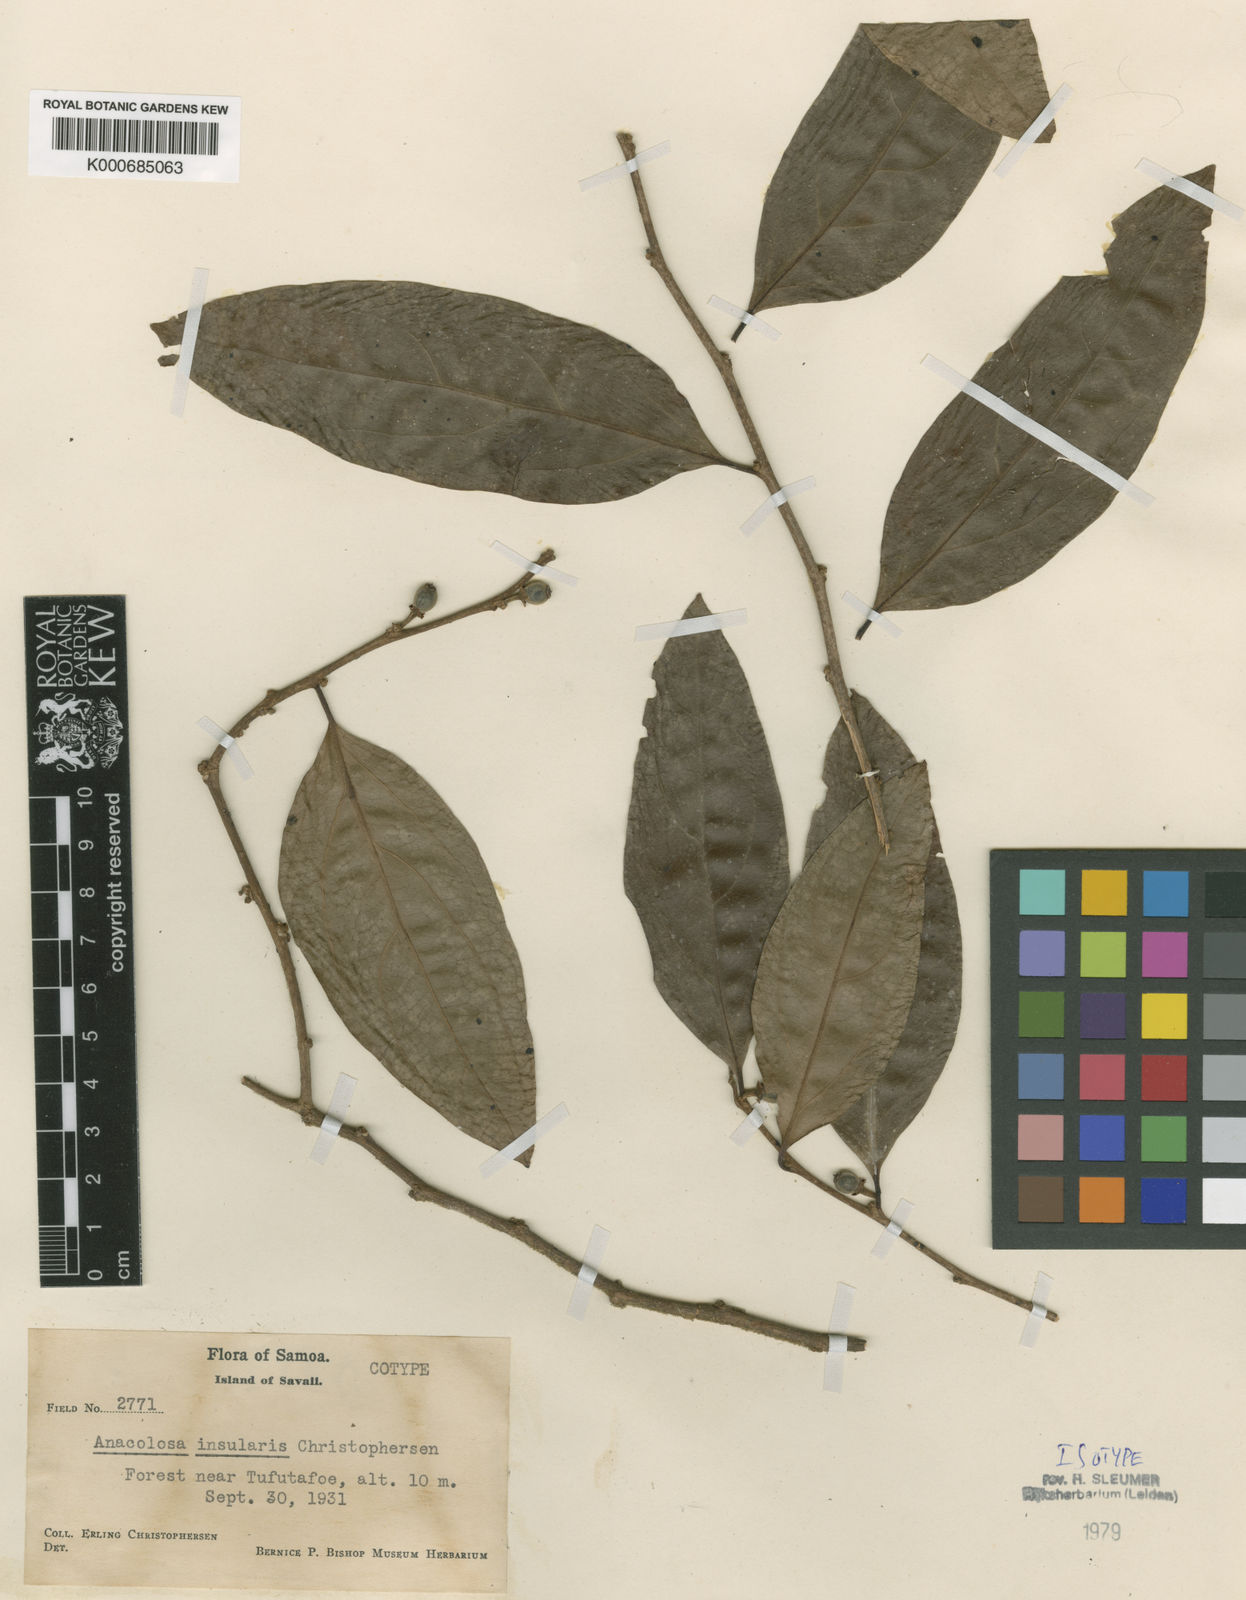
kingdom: Plantae
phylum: Tracheophyta
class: Magnoliopsida
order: Santalales
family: Aptandraceae
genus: Anacolosa
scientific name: Anacolosa insularis
